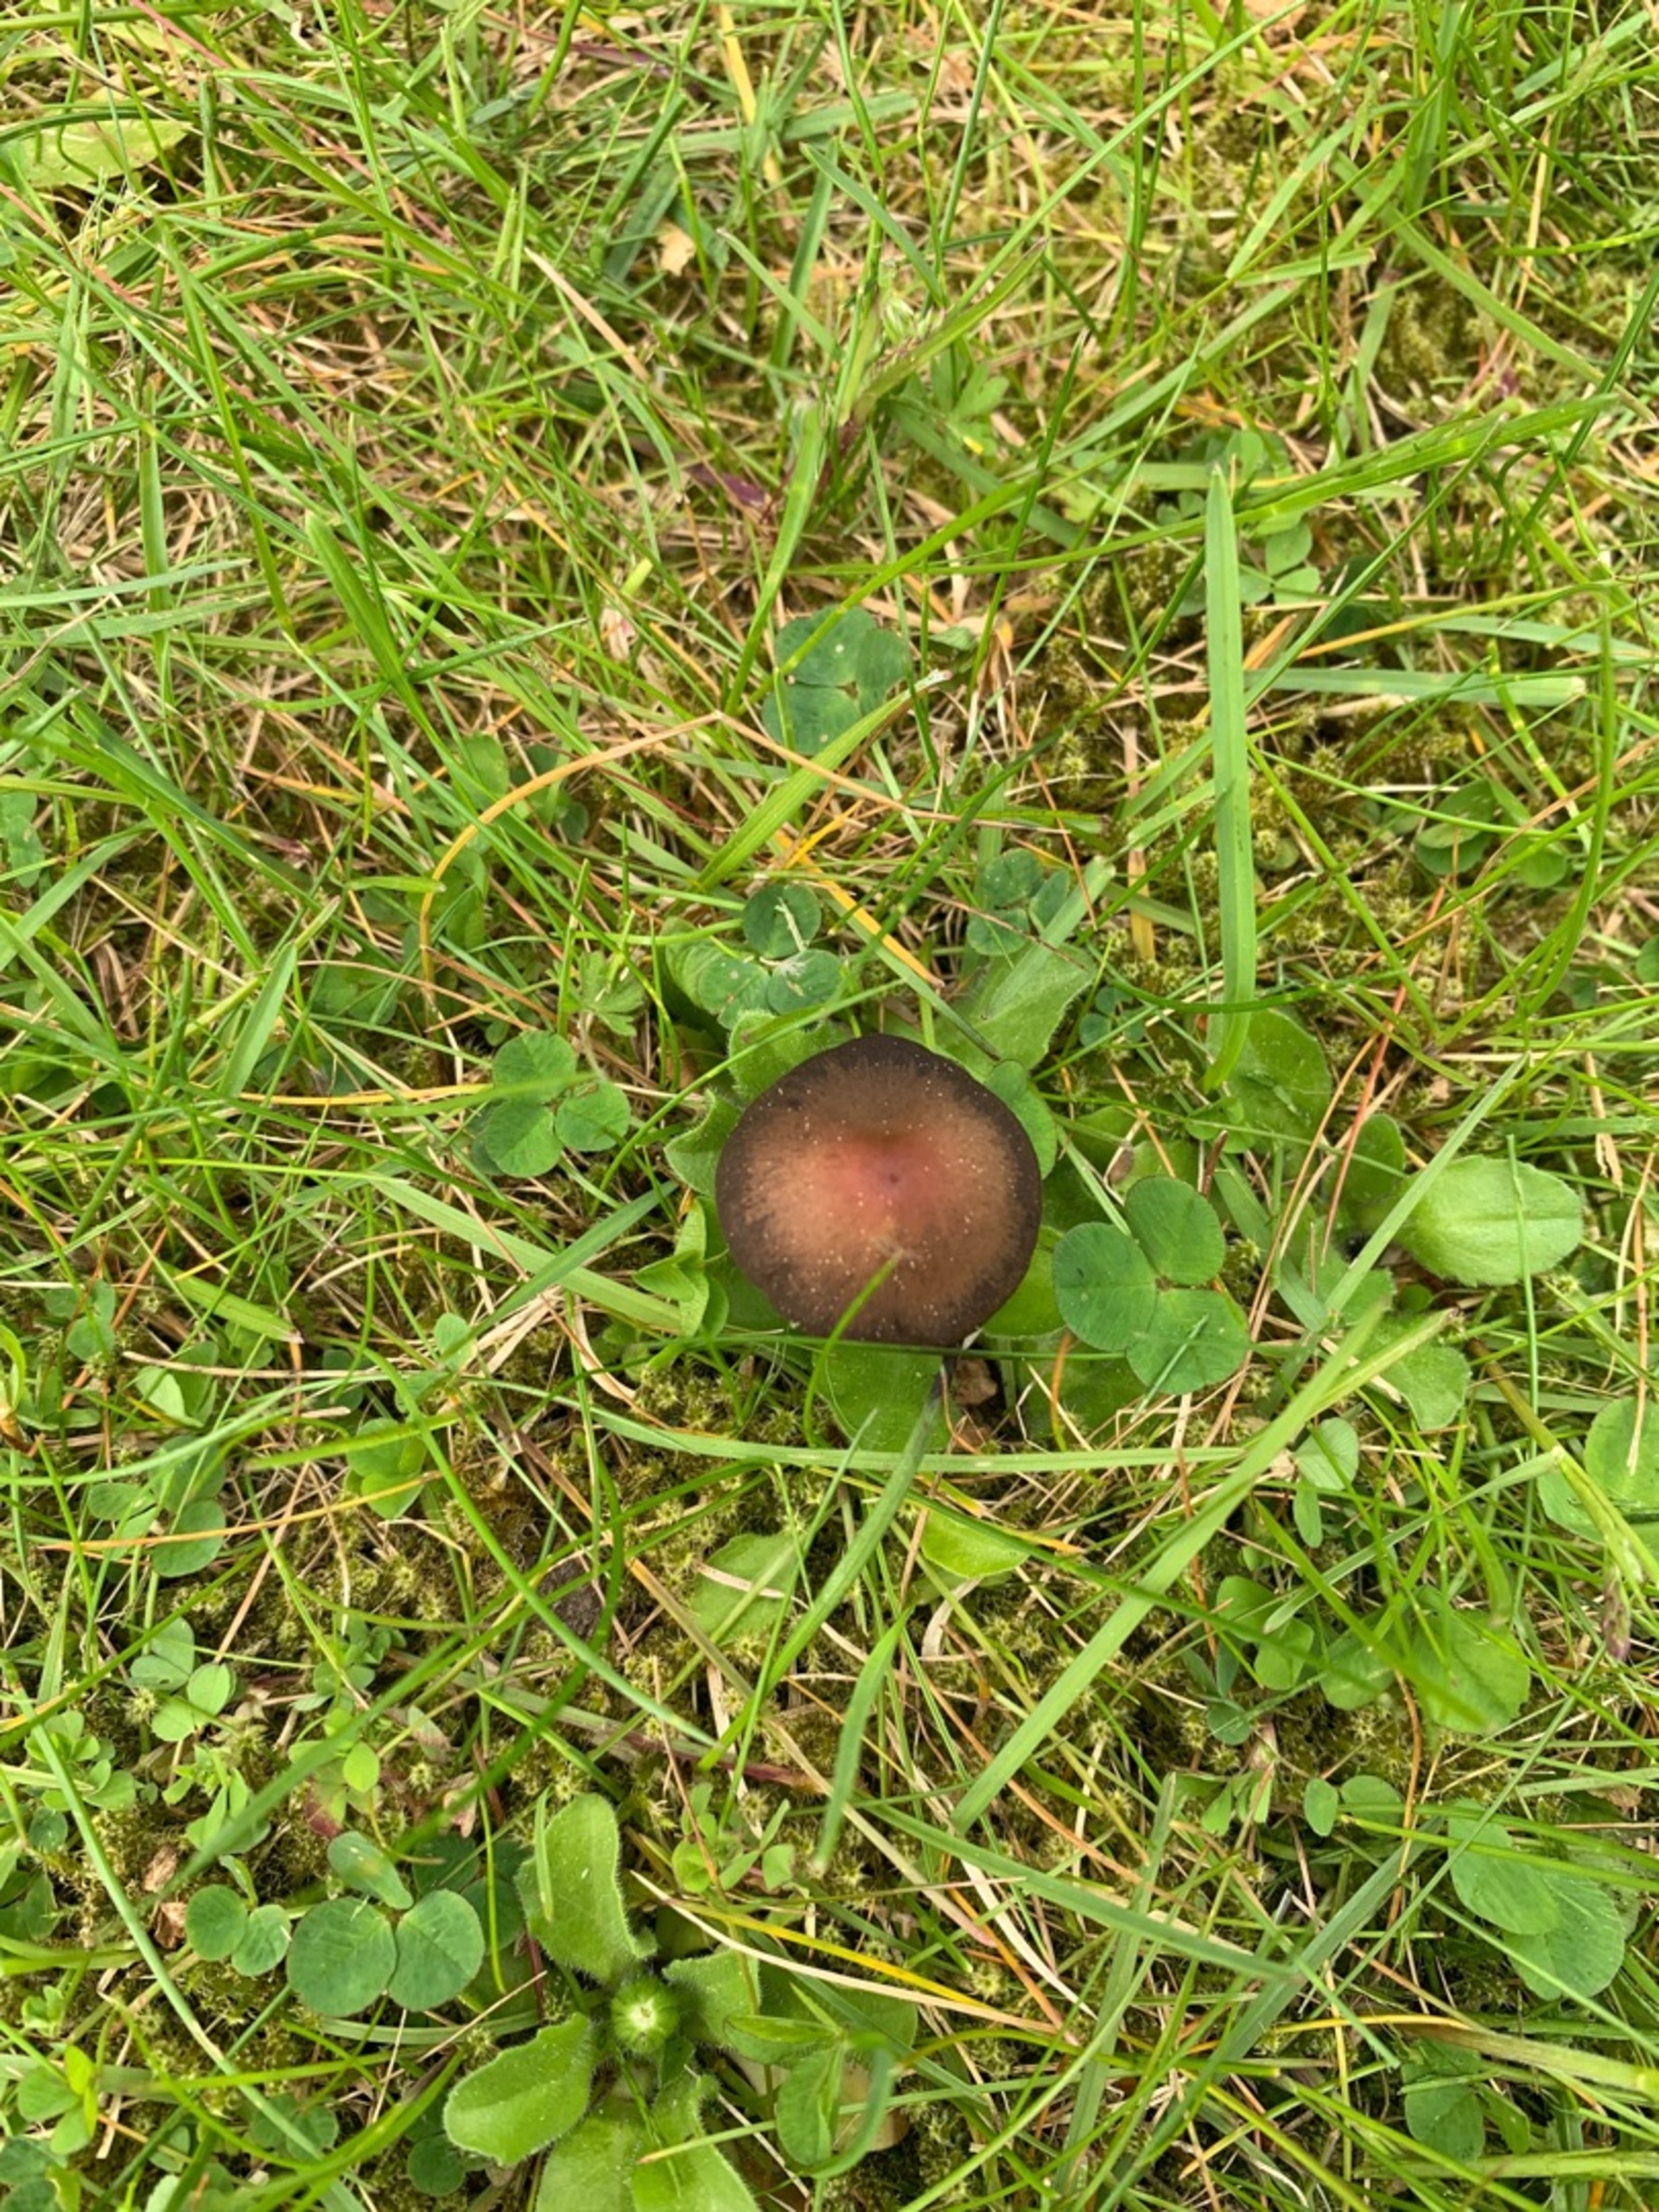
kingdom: Fungi
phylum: Basidiomycota
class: Agaricomycetes
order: Agaricales
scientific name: Agaricales
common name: Champignonordenen
